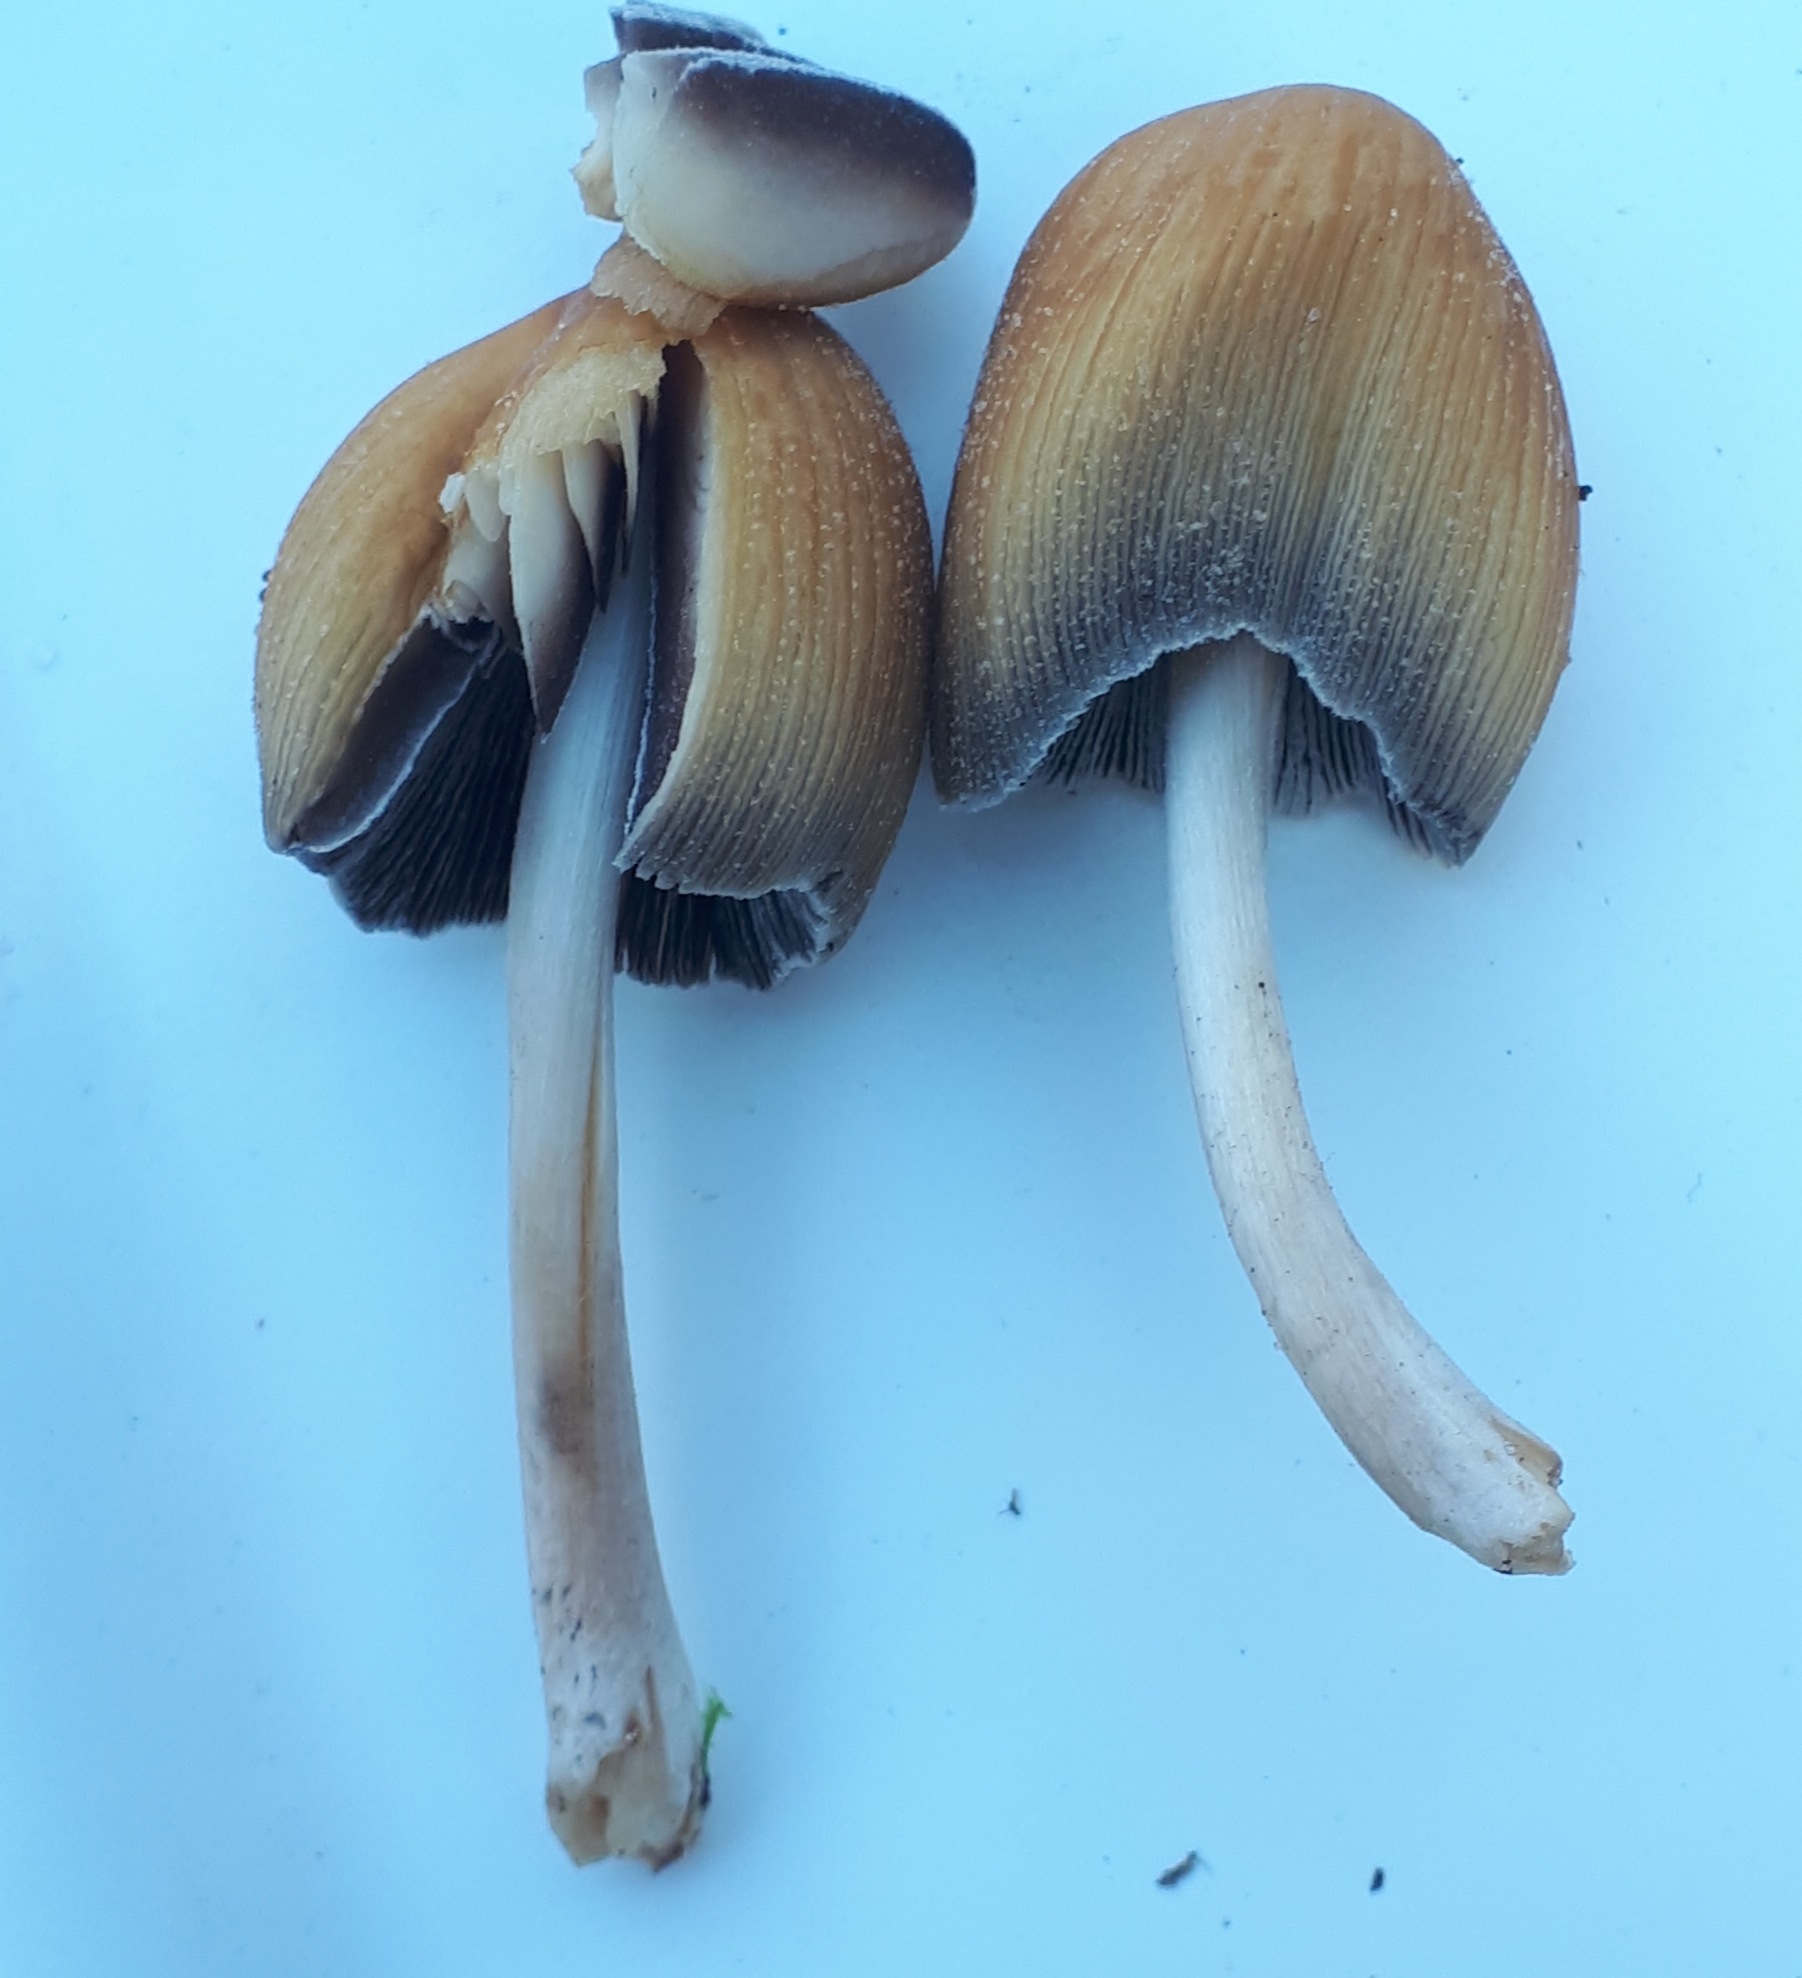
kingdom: Fungi
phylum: Basidiomycota
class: Agaricomycetes
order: Agaricales
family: Psathyrellaceae
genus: Coprinellus
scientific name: Coprinellus
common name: blækhat
